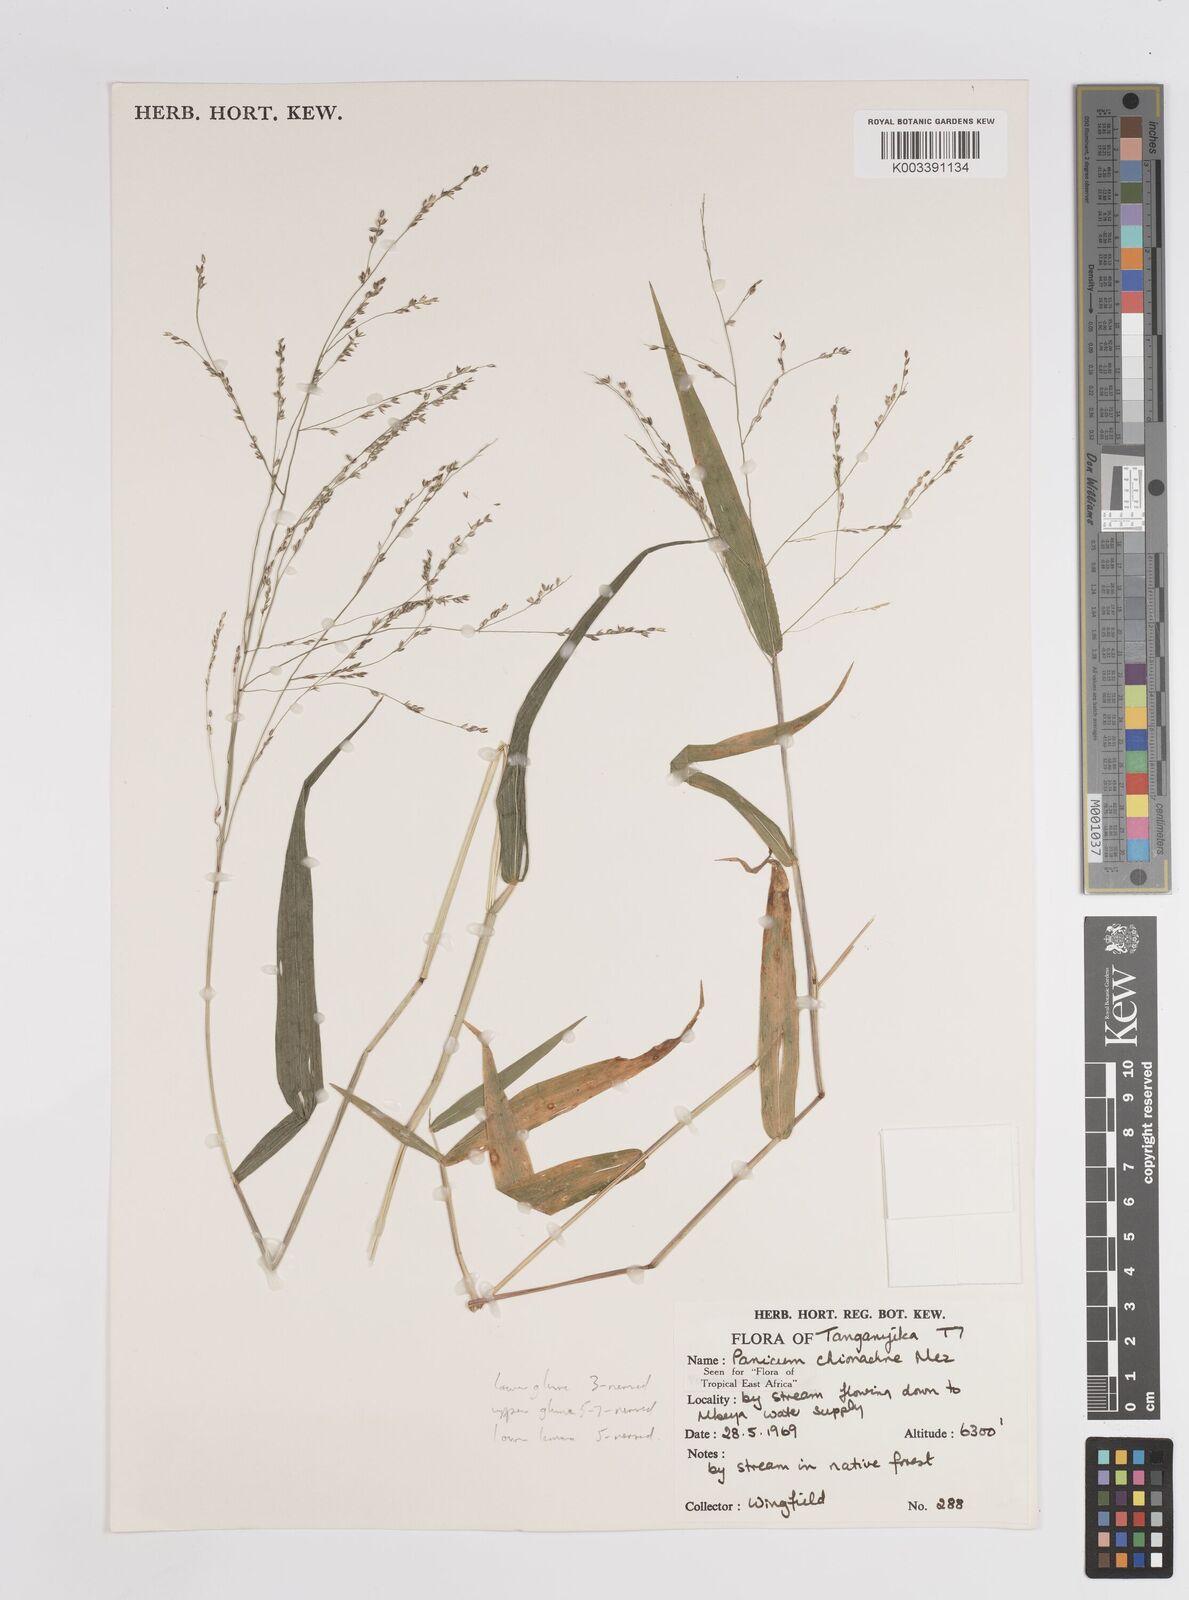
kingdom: Plantae
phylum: Tracheophyta
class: Liliopsida
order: Poales
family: Poaceae
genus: Panicum
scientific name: Panicum chionachne
